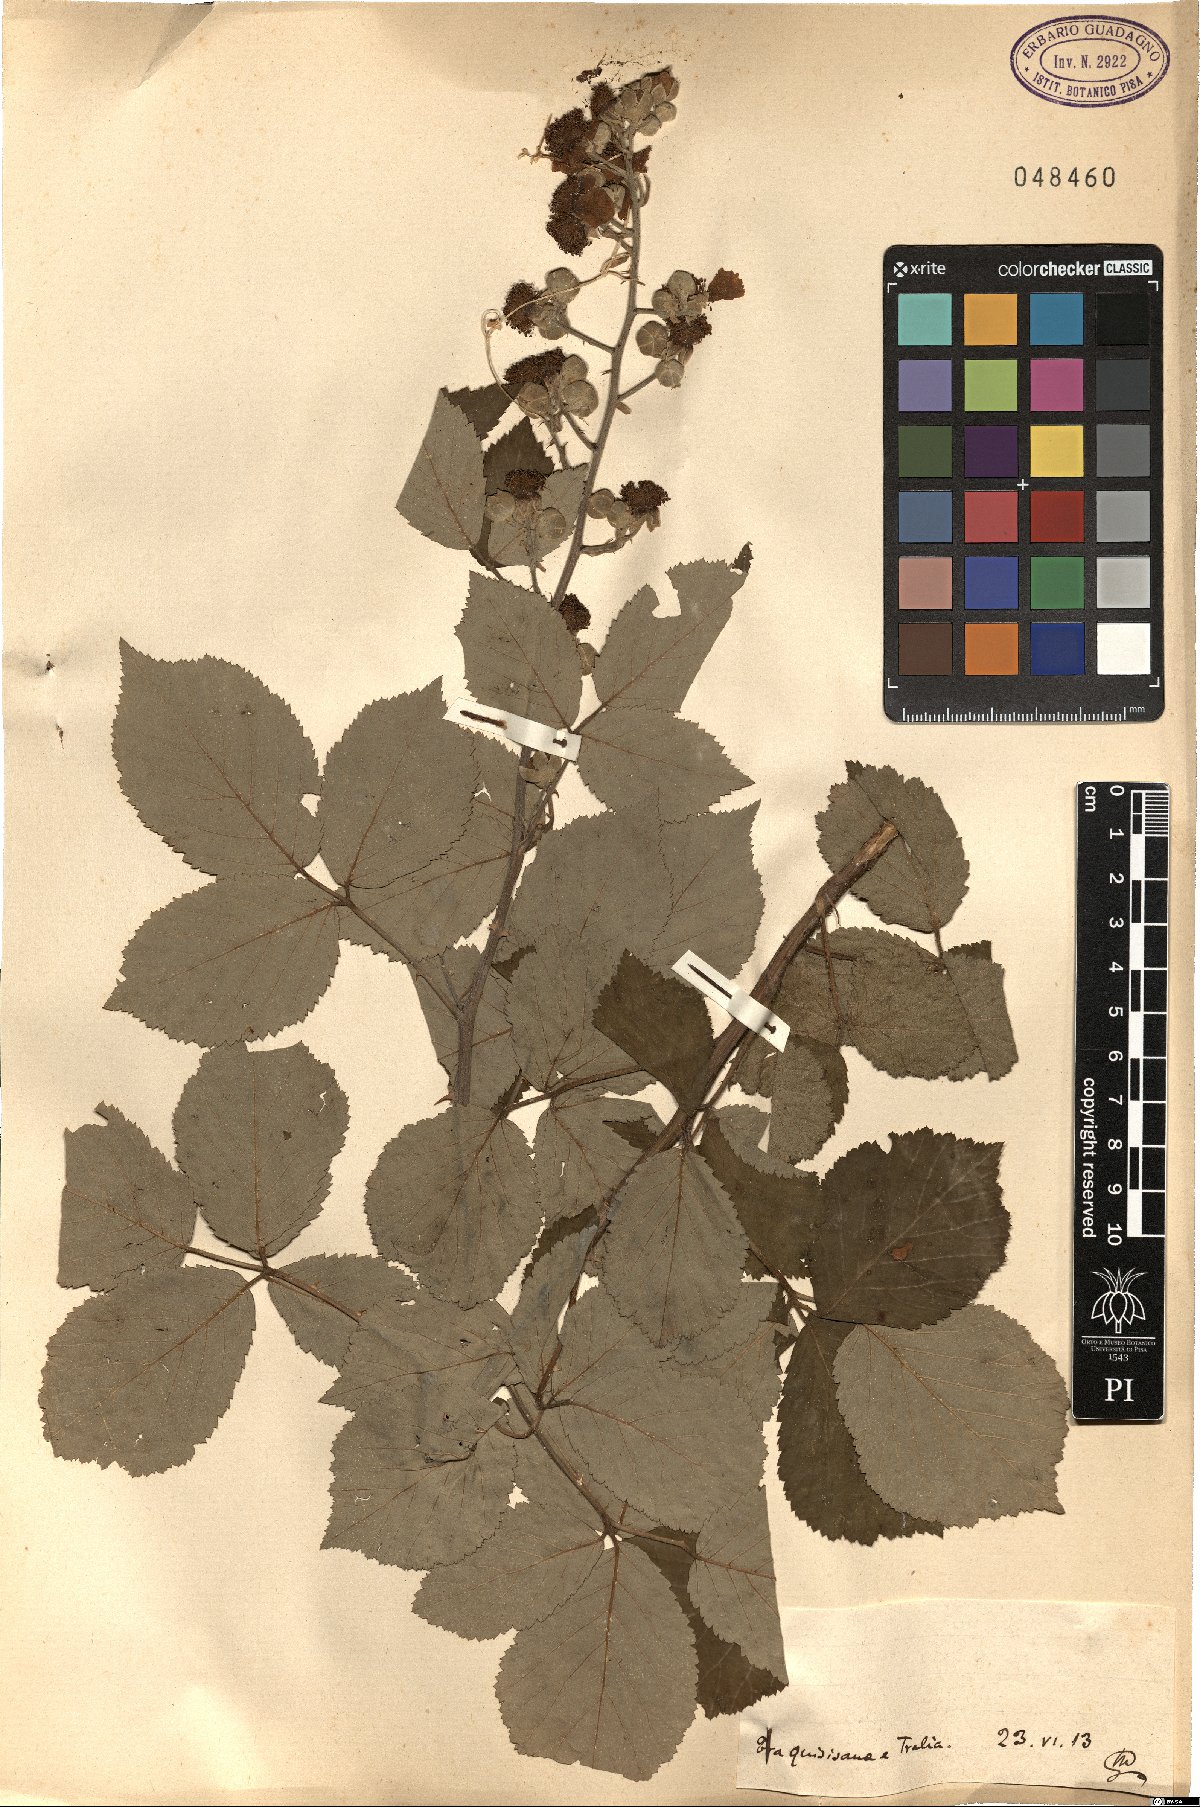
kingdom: Plantae
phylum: Tracheophyta
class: Magnoliopsida
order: Rosales
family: Rosaceae
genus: Rubus
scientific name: Rubus
